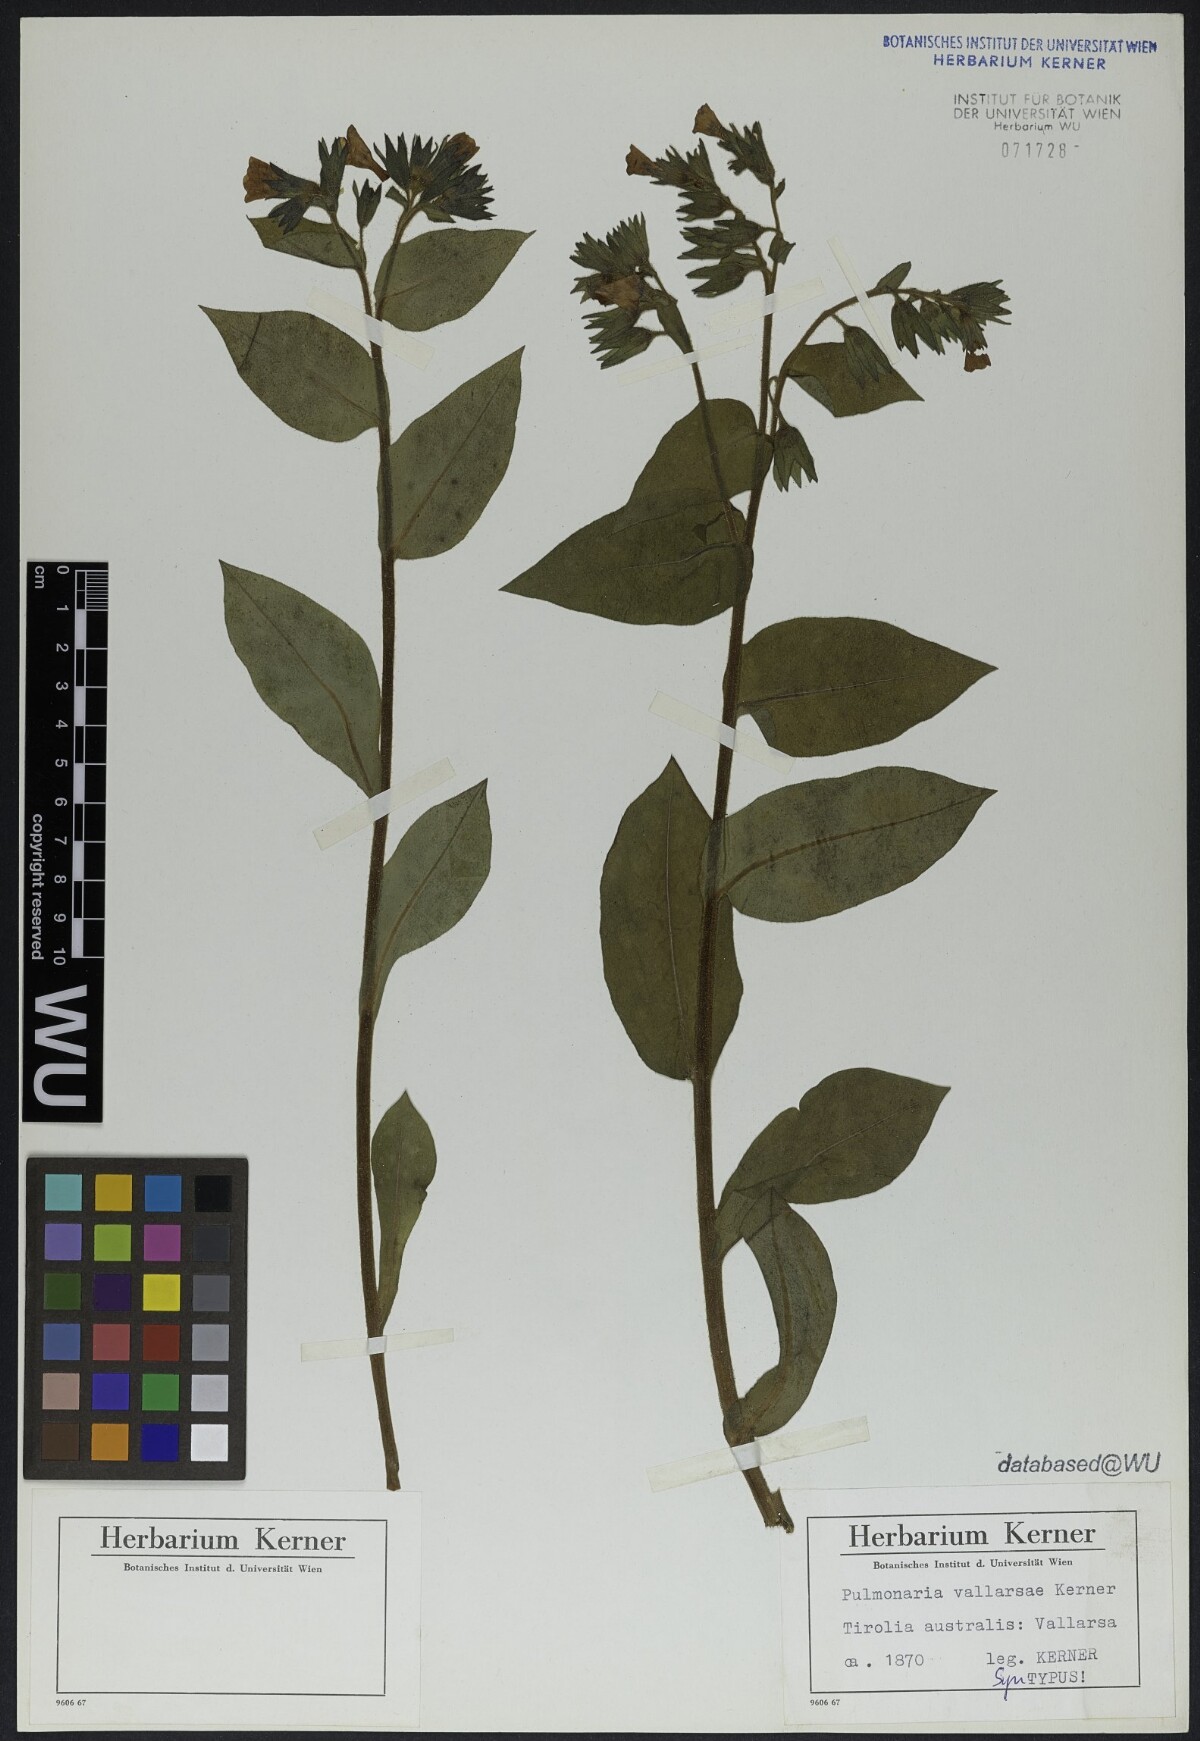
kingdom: Plantae
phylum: Tracheophyta
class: Magnoliopsida
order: Boraginales
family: Boraginaceae
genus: Pulmonaria
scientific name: Pulmonaria hirta
